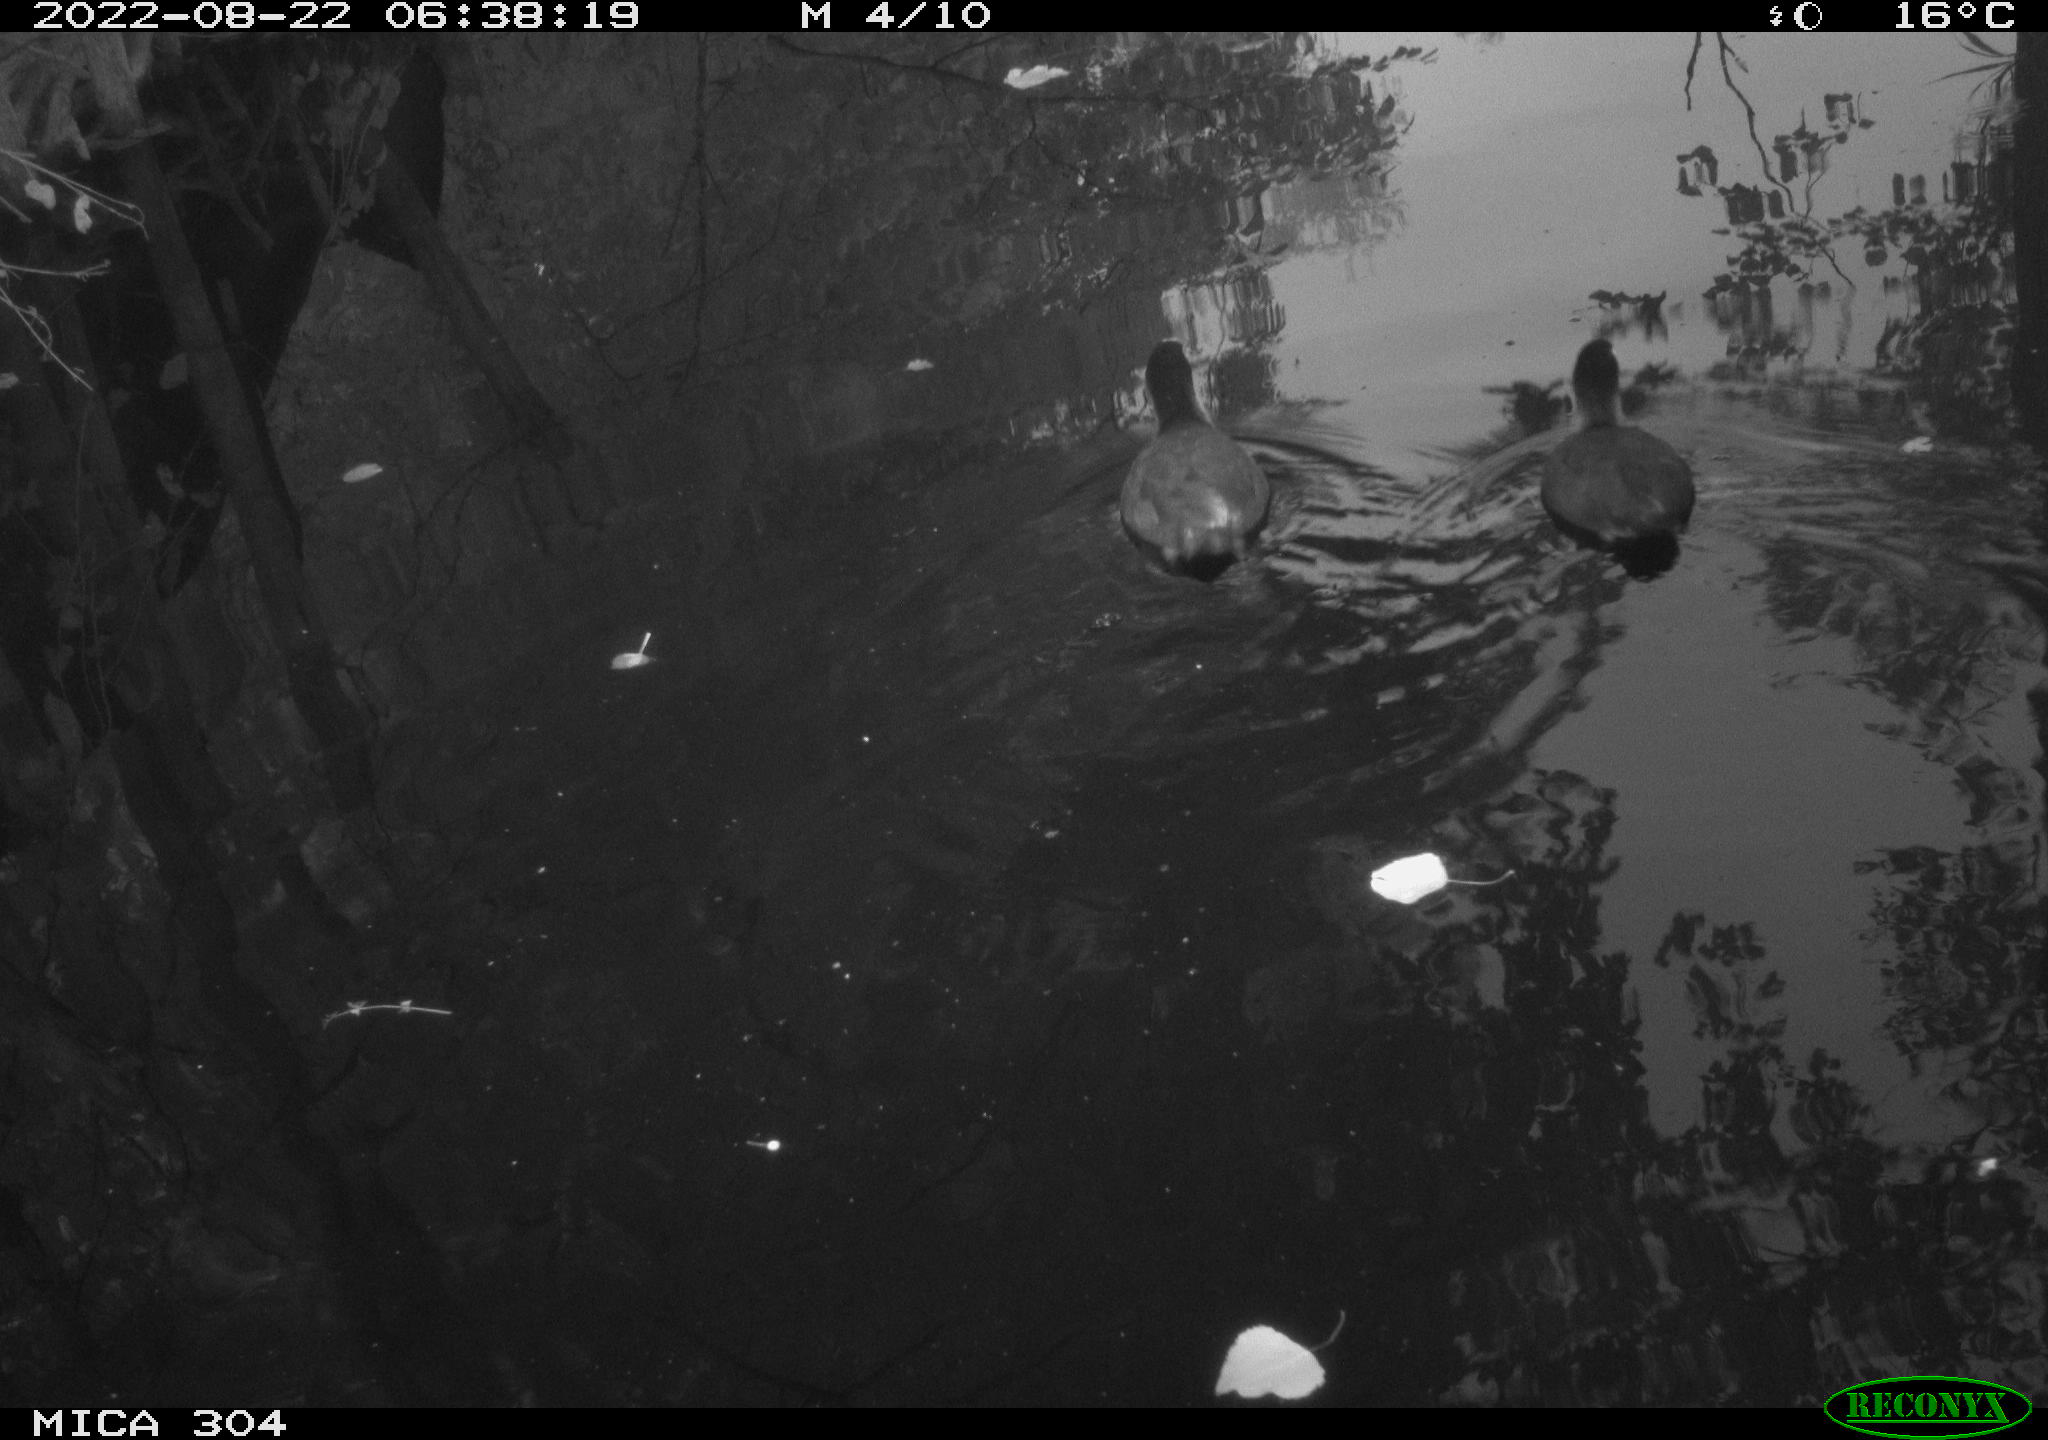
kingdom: Animalia
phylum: Chordata
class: Aves
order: Gruiformes
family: Rallidae
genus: Fulica
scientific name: Fulica atra
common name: Eurasian coot
